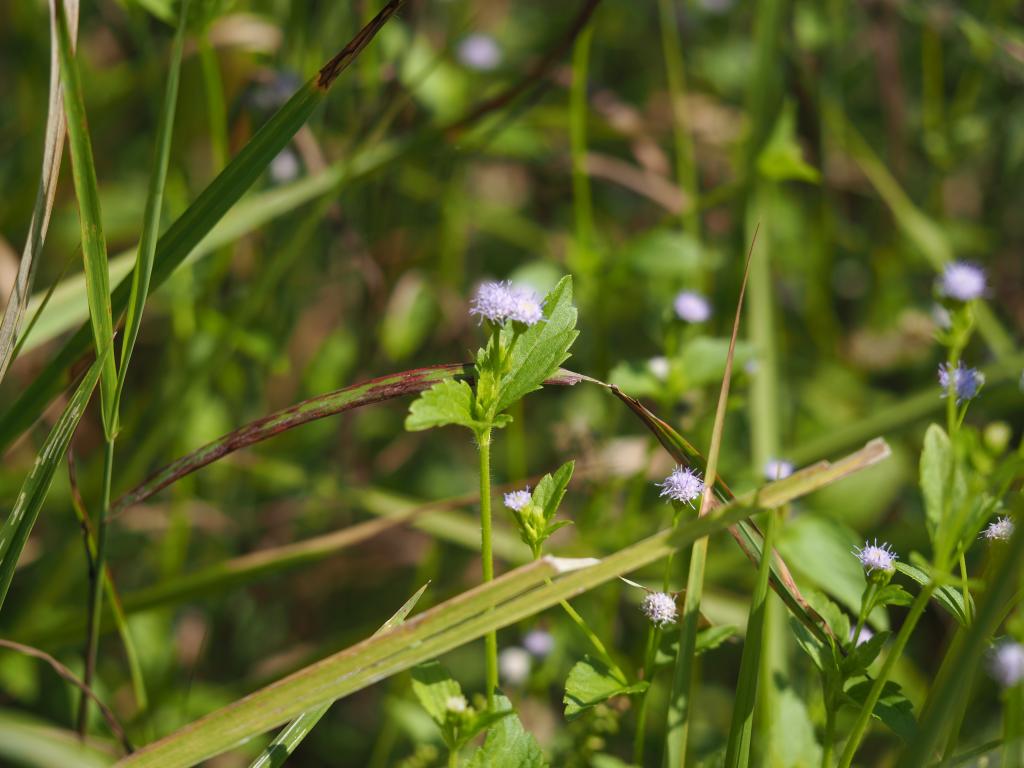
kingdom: Plantae
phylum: Tracheophyta
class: Magnoliopsida
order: Asterales
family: Asteraceae
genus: Praxelis
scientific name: Praxelis clematidea
